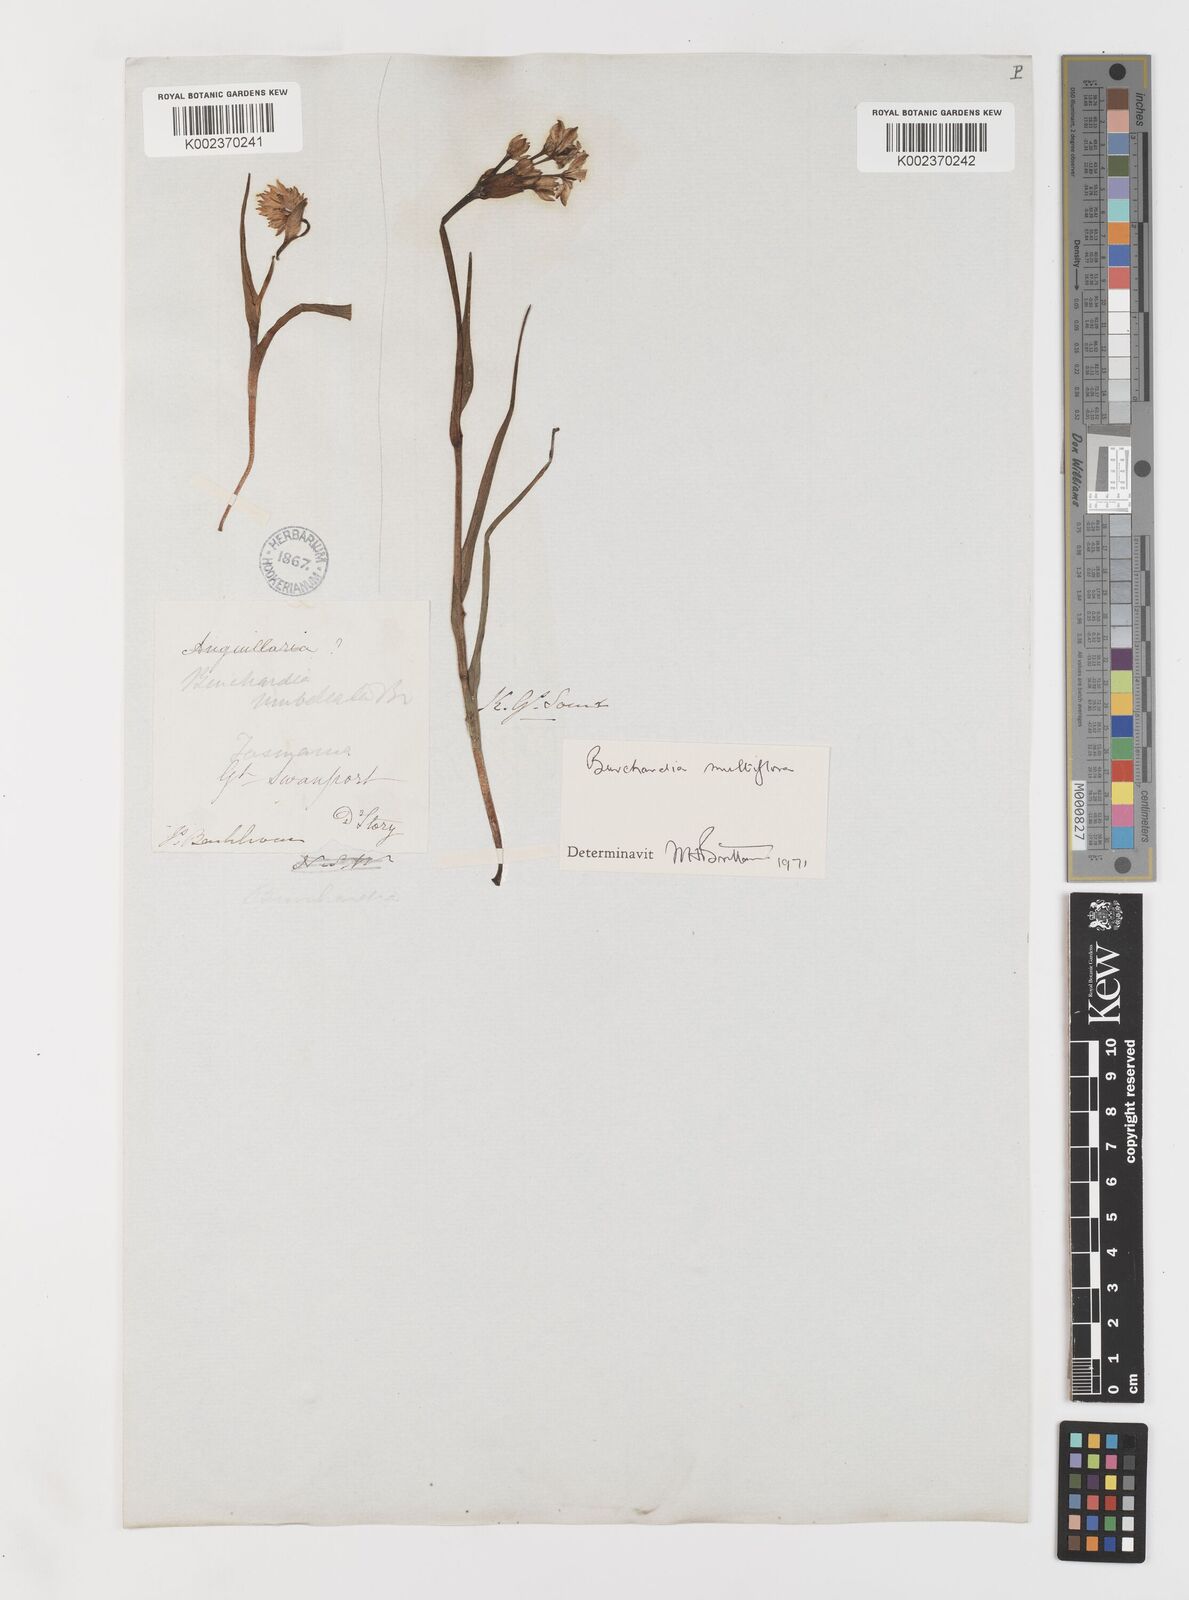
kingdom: Plantae
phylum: Tracheophyta
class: Liliopsida
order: Liliales
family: Colchicaceae
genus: Burchardia
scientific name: Burchardia multiflora
